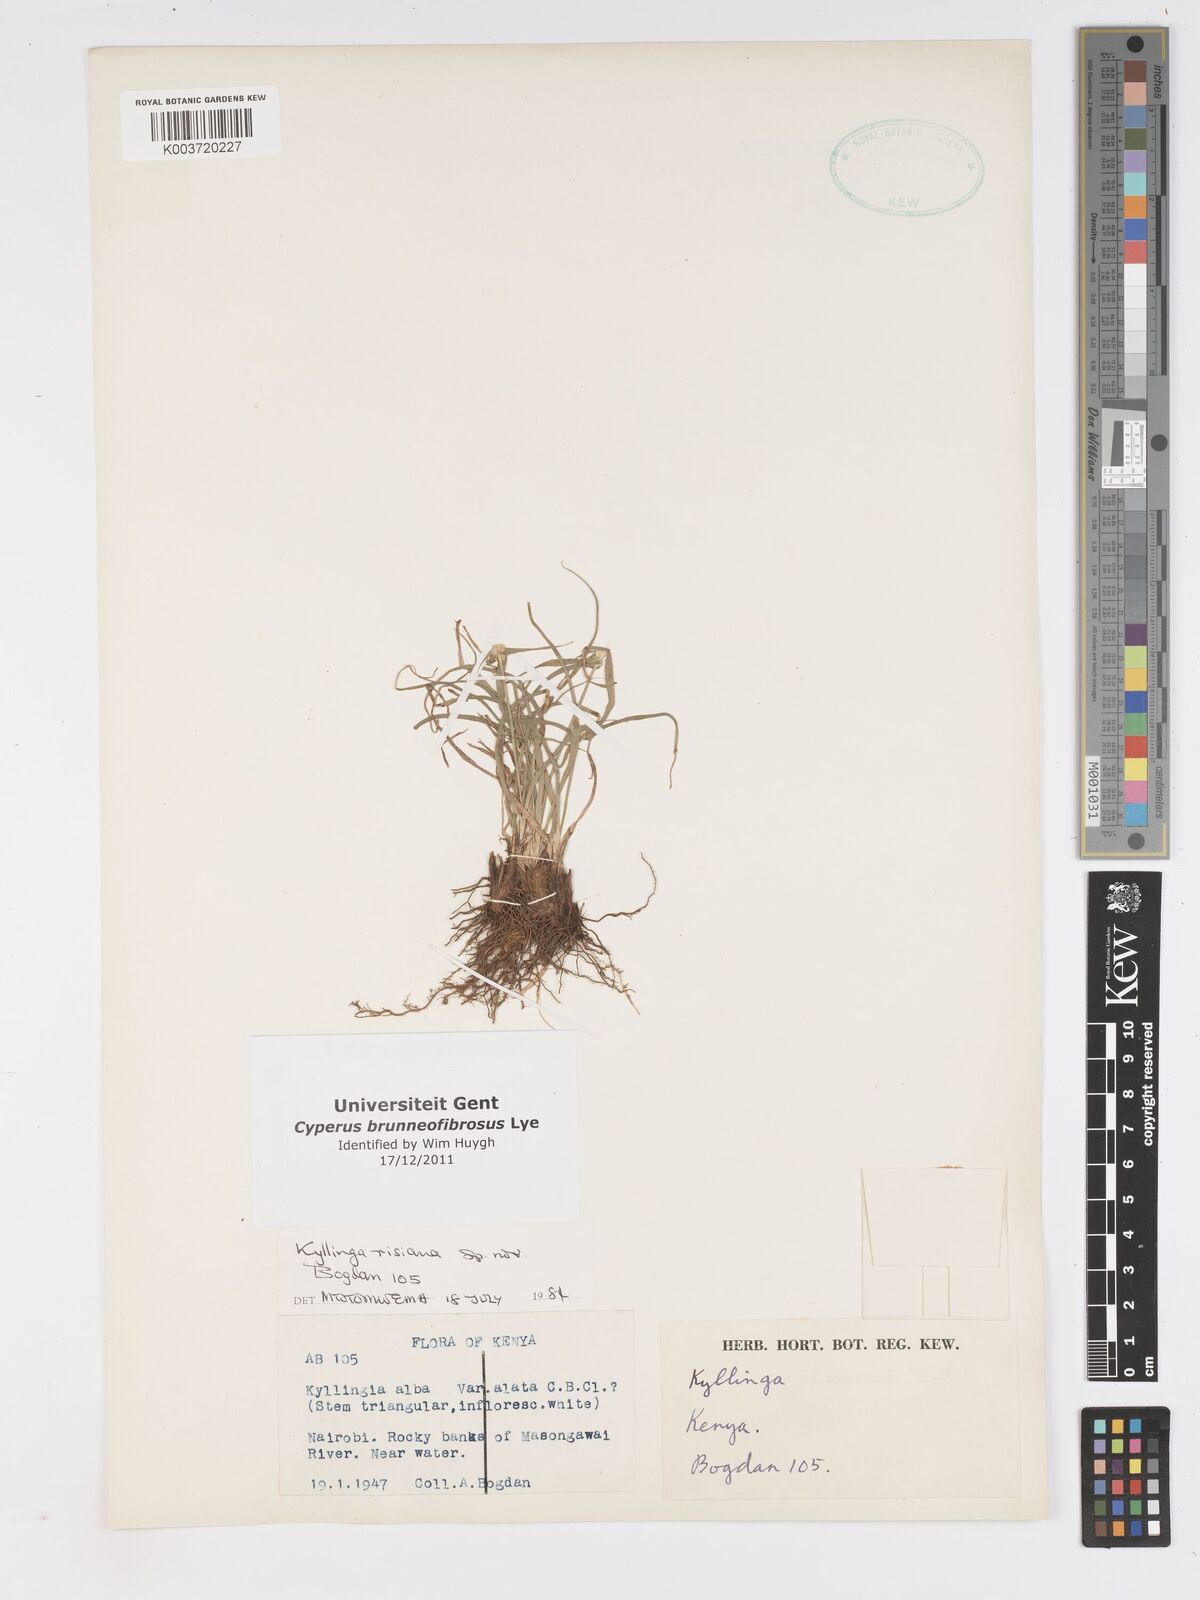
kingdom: Plantae
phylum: Tracheophyta
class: Liliopsida
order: Poales
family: Cyperaceae
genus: Cyperus
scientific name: Cyperus brunneofibrosus
